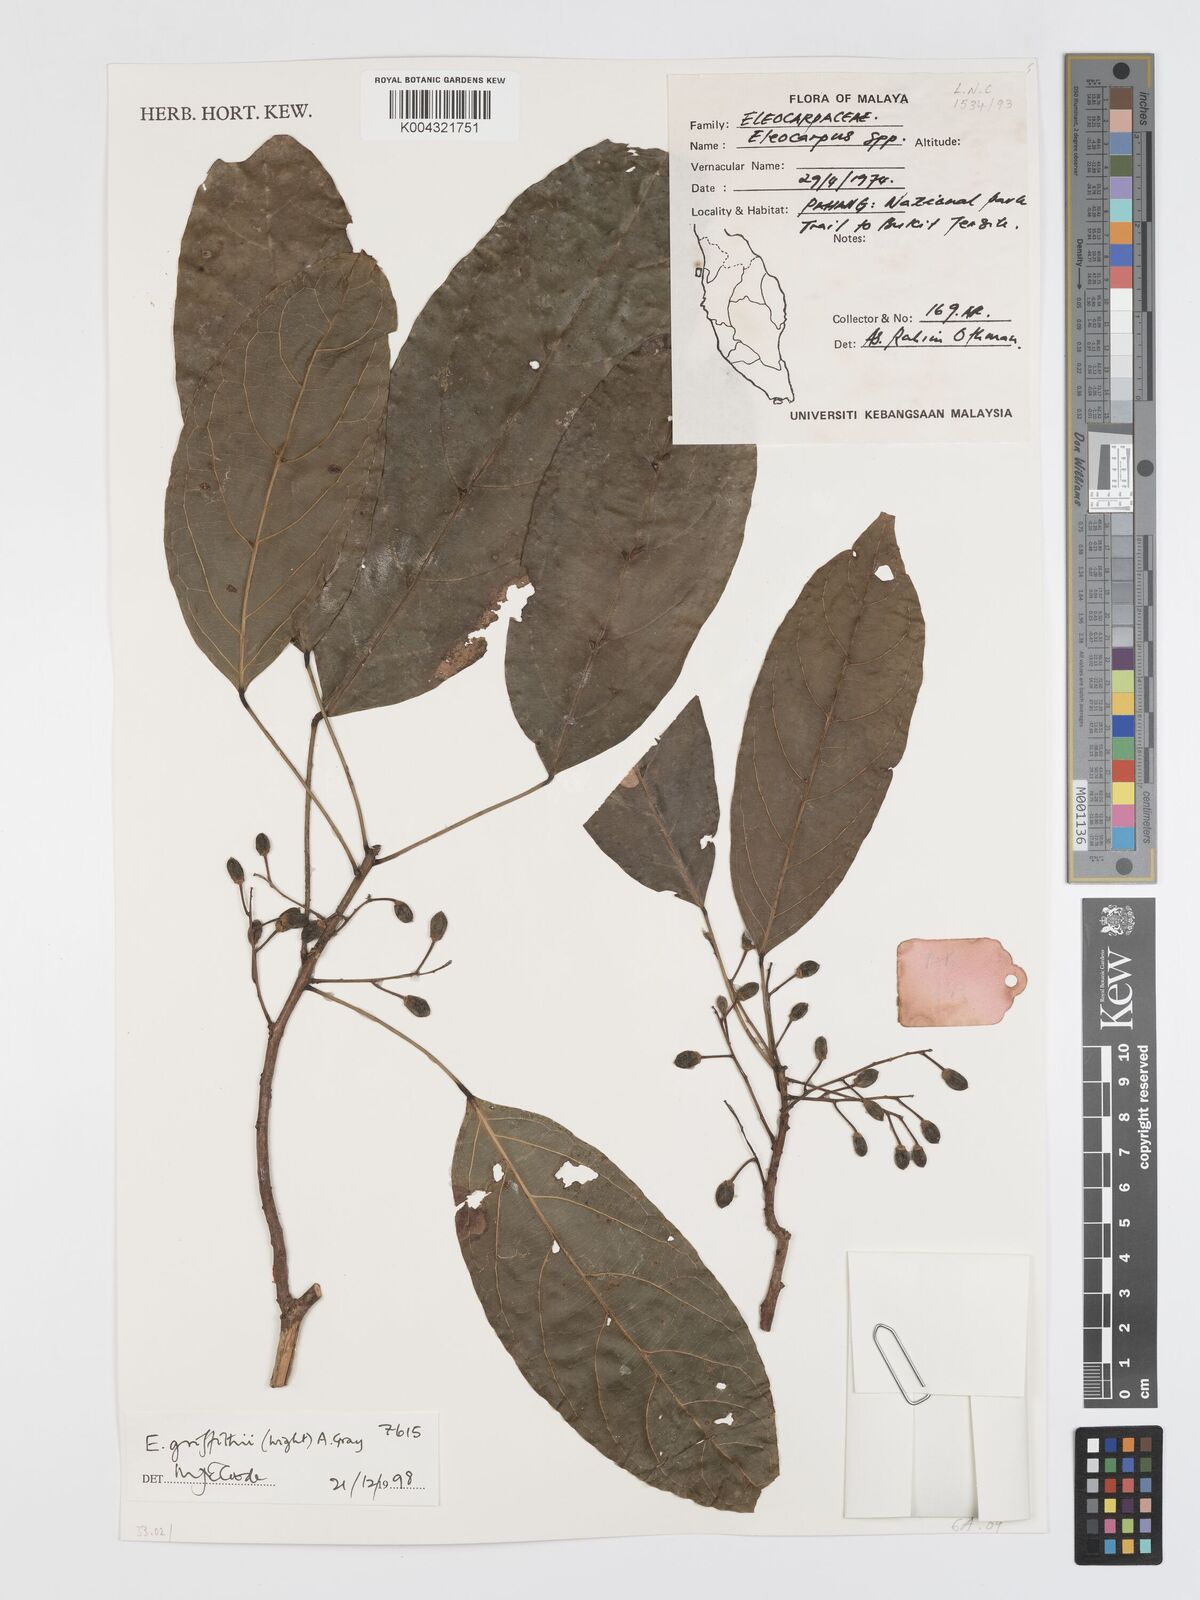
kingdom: Plantae
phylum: Tracheophyta
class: Magnoliopsida
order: Oxalidales
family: Elaeocarpaceae
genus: Elaeocarpus
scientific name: Elaeocarpus griffithii
